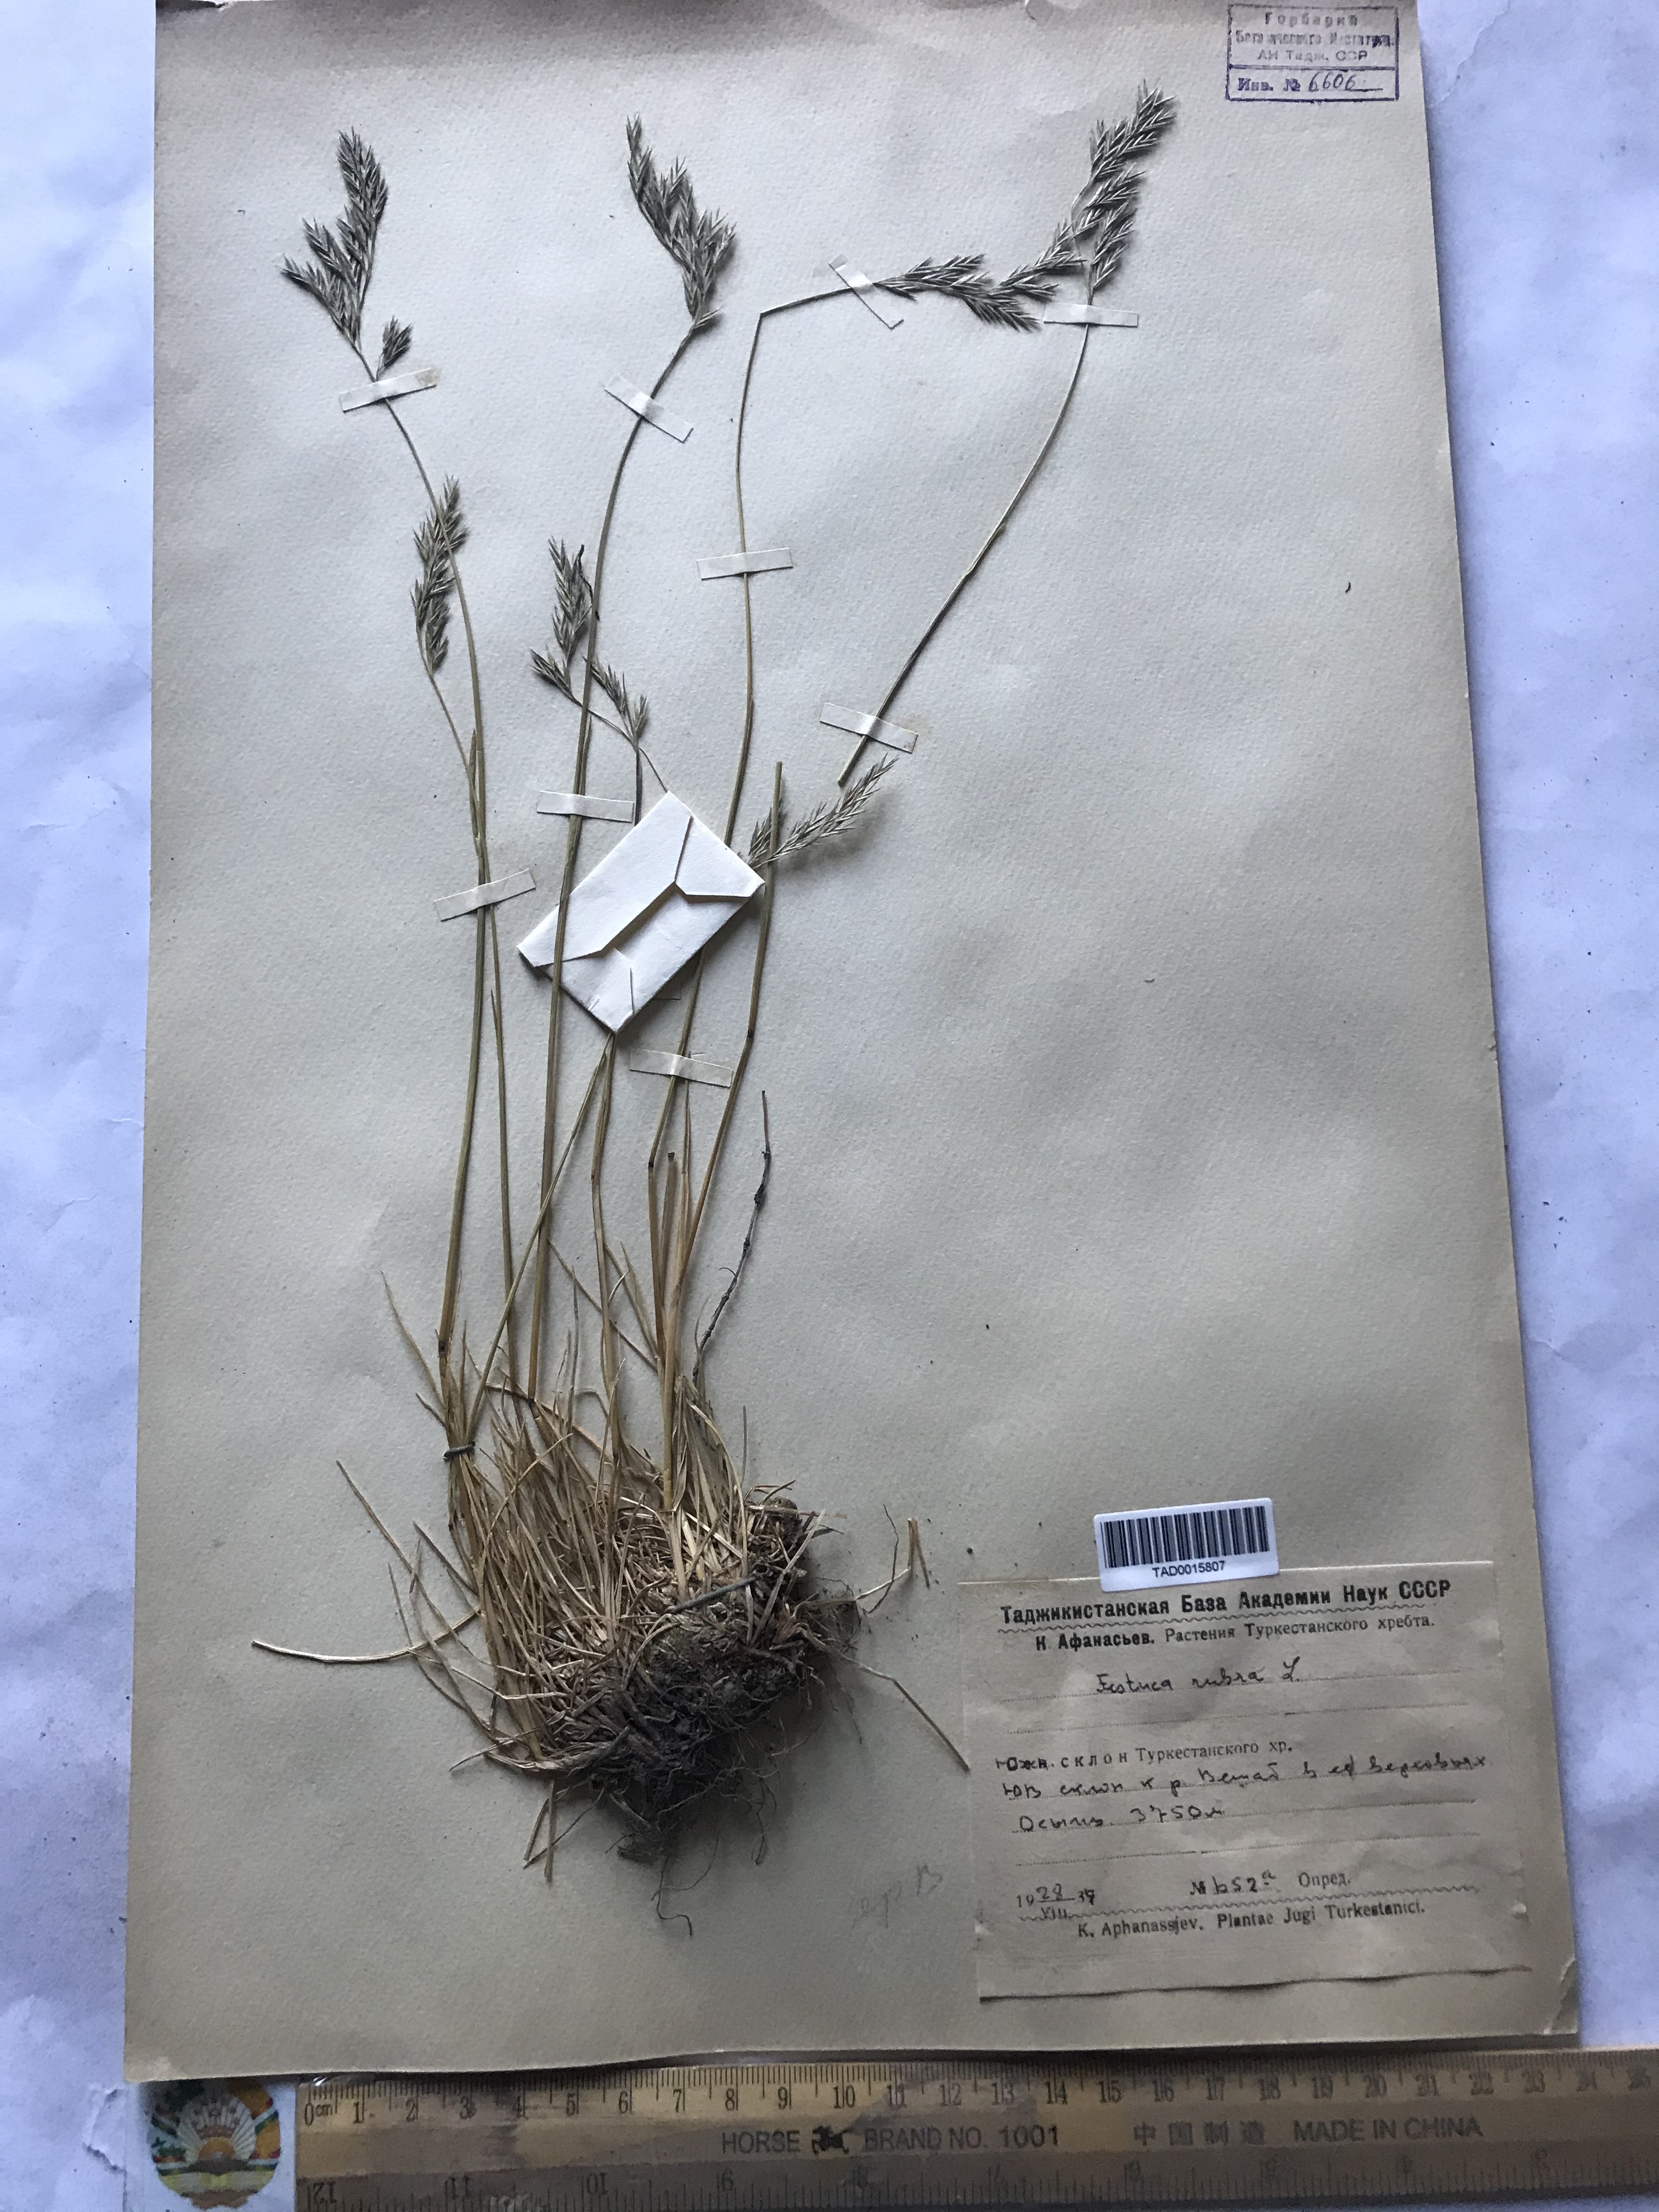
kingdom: Plantae
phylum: Tracheophyta
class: Liliopsida
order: Poales
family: Poaceae
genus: Festuca
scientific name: Festuca rubra
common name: Red fescue
